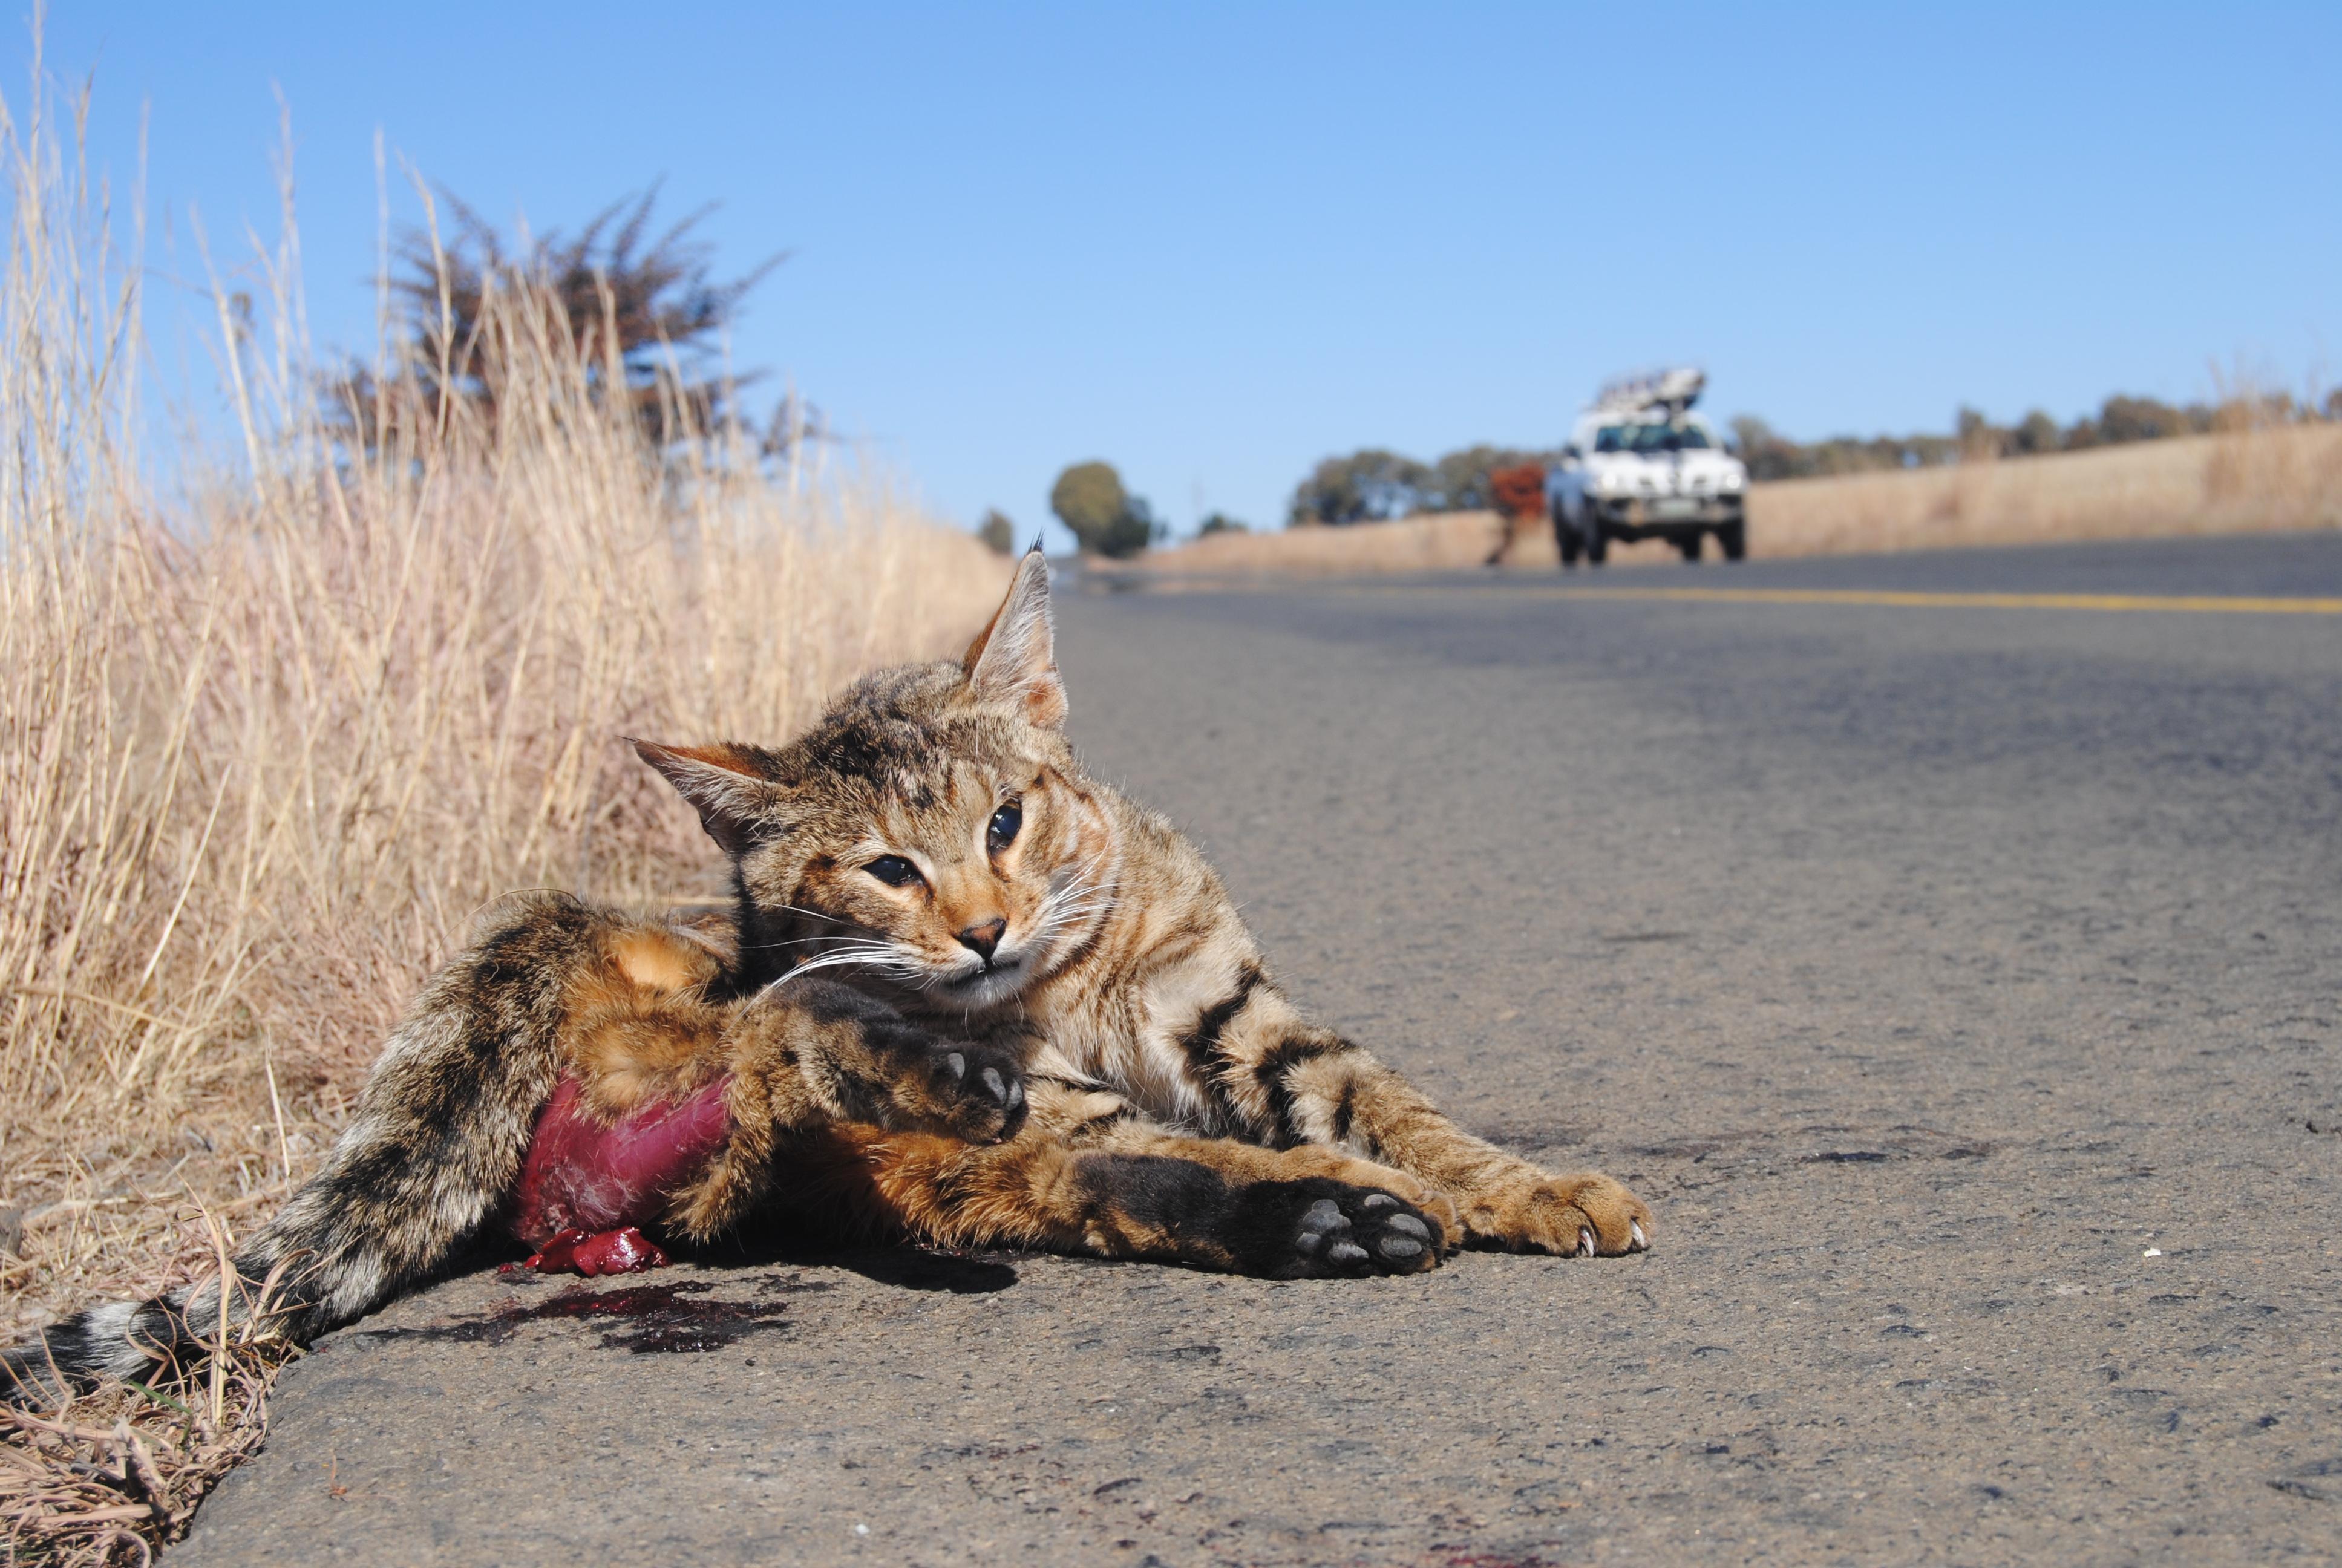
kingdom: Animalia
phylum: Chordata
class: Mammalia
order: Carnivora
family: Felidae
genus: Felis
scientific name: Felis catus
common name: Domestic cat
